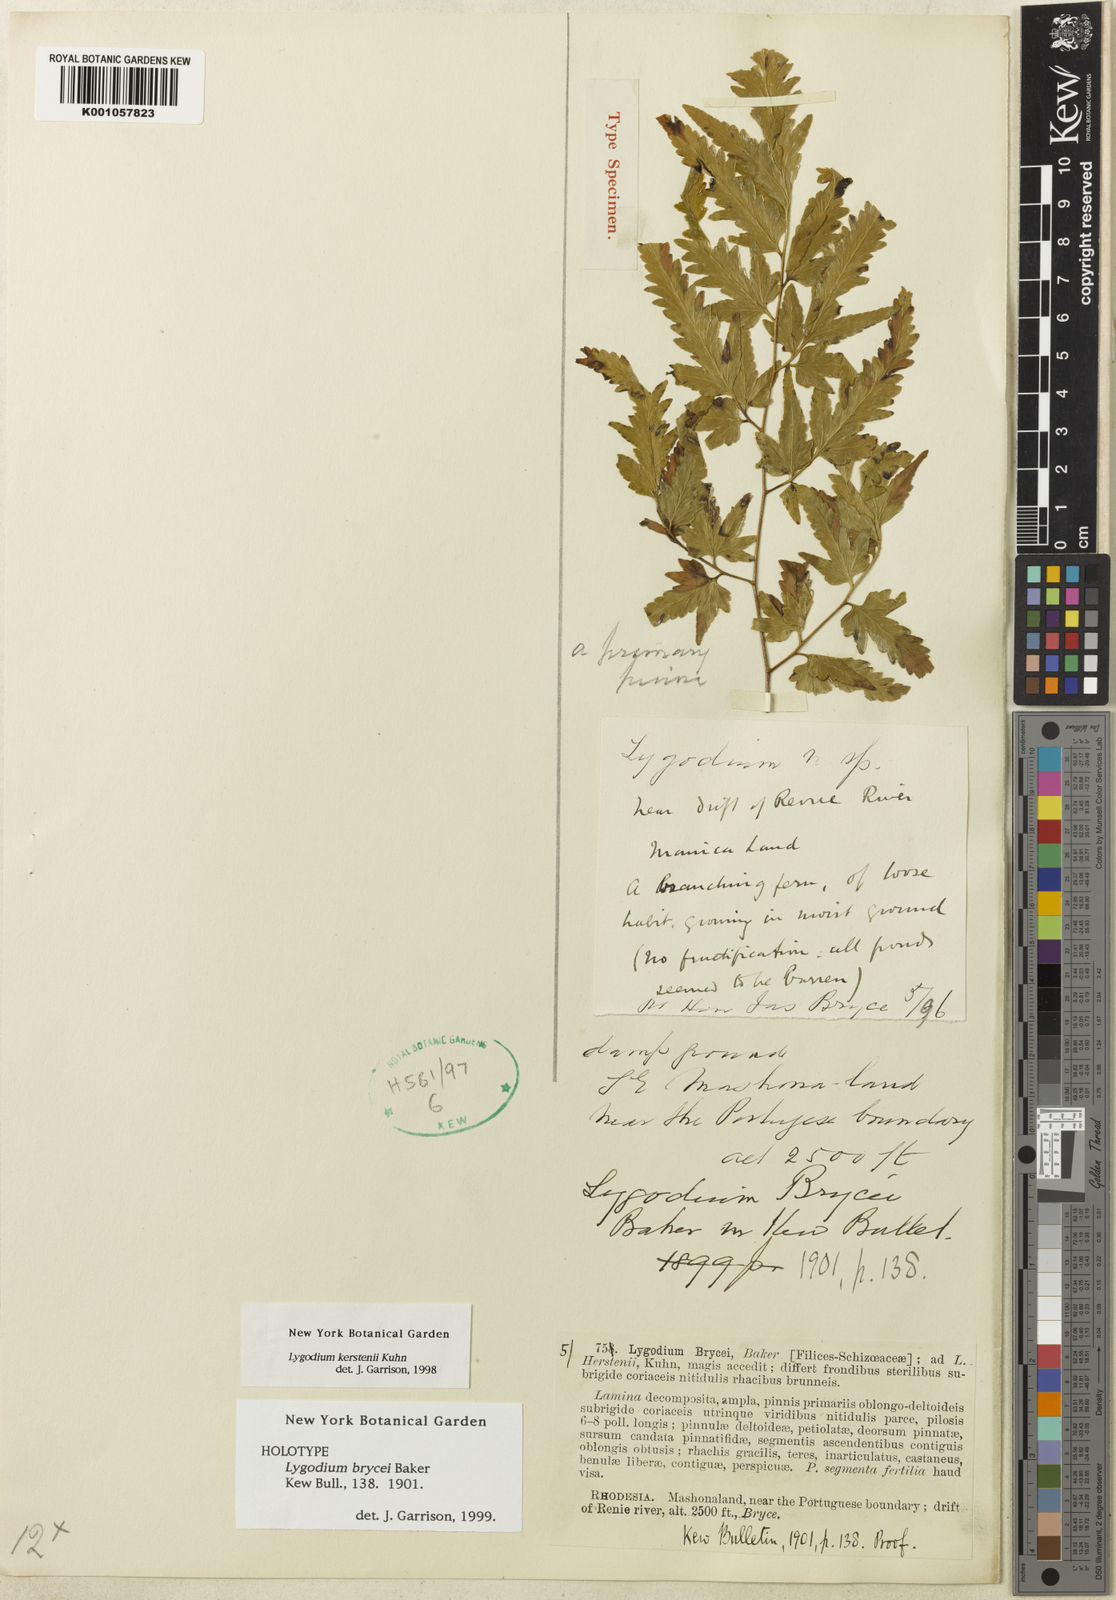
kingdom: Plantae
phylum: Tracheophyta
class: Polypodiopsida
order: Schizaeales
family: Lygodiaceae
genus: Lygodium
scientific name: Lygodium kerstenii
